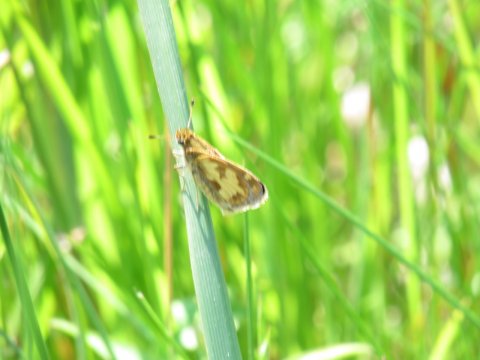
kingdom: Animalia
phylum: Arthropoda
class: Insecta
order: Lepidoptera
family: Hesperiidae
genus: Polites
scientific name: Polites coras
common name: Peck's Skipper
